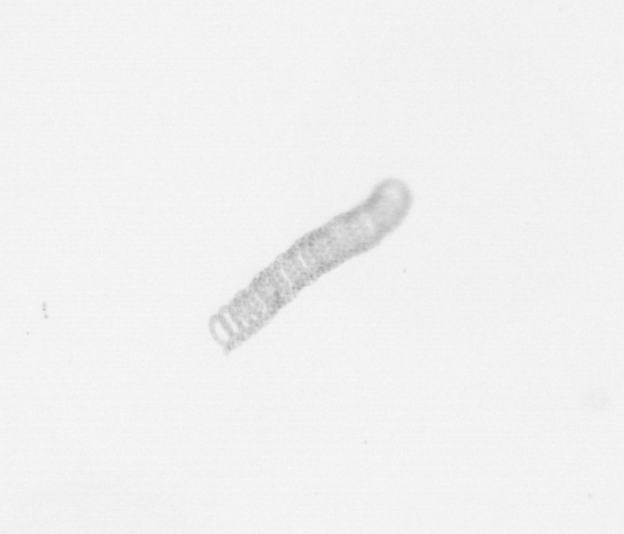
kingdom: Chromista
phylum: Ochrophyta
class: Bacillariophyceae
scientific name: Bacillariophyceae
